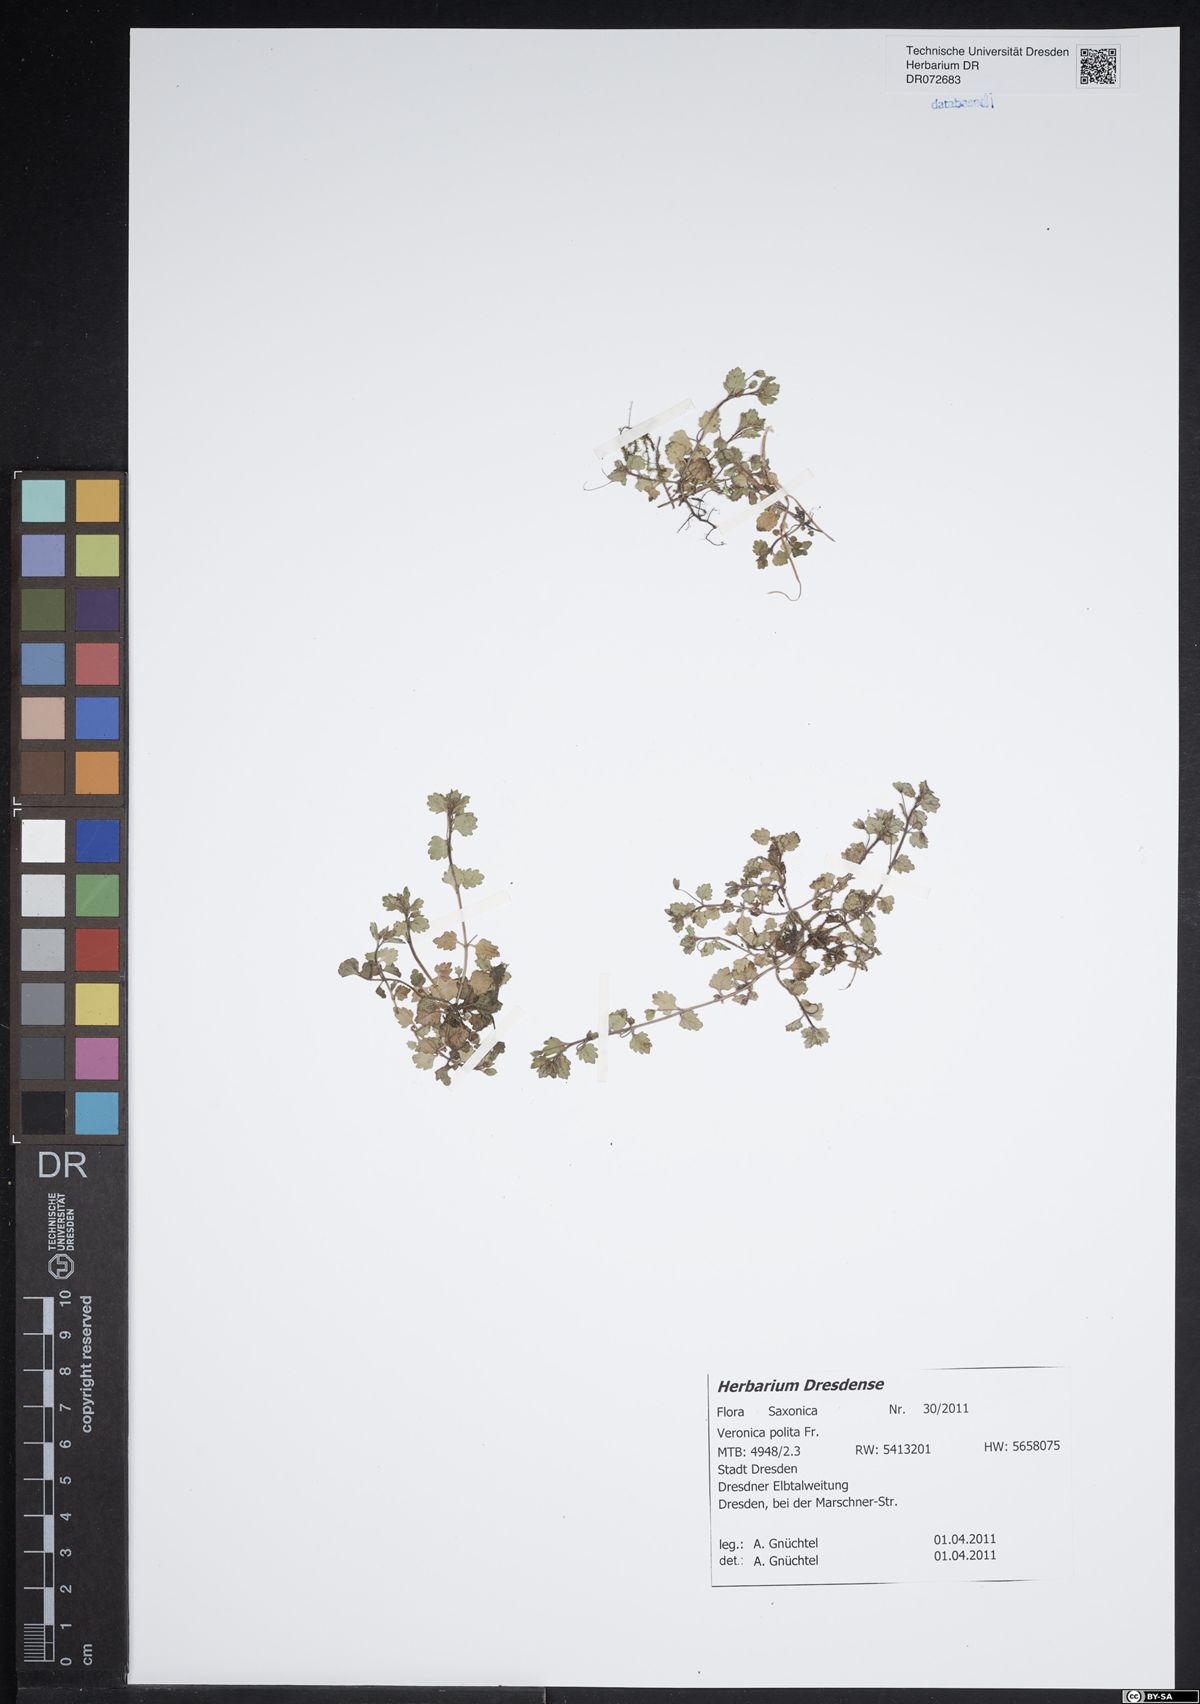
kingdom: Plantae
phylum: Tracheophyta
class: Magnoliopsida
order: Lamiales
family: Plantaginaceae
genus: Veronica
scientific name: Veronica polita
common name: Grey field-speedwell
